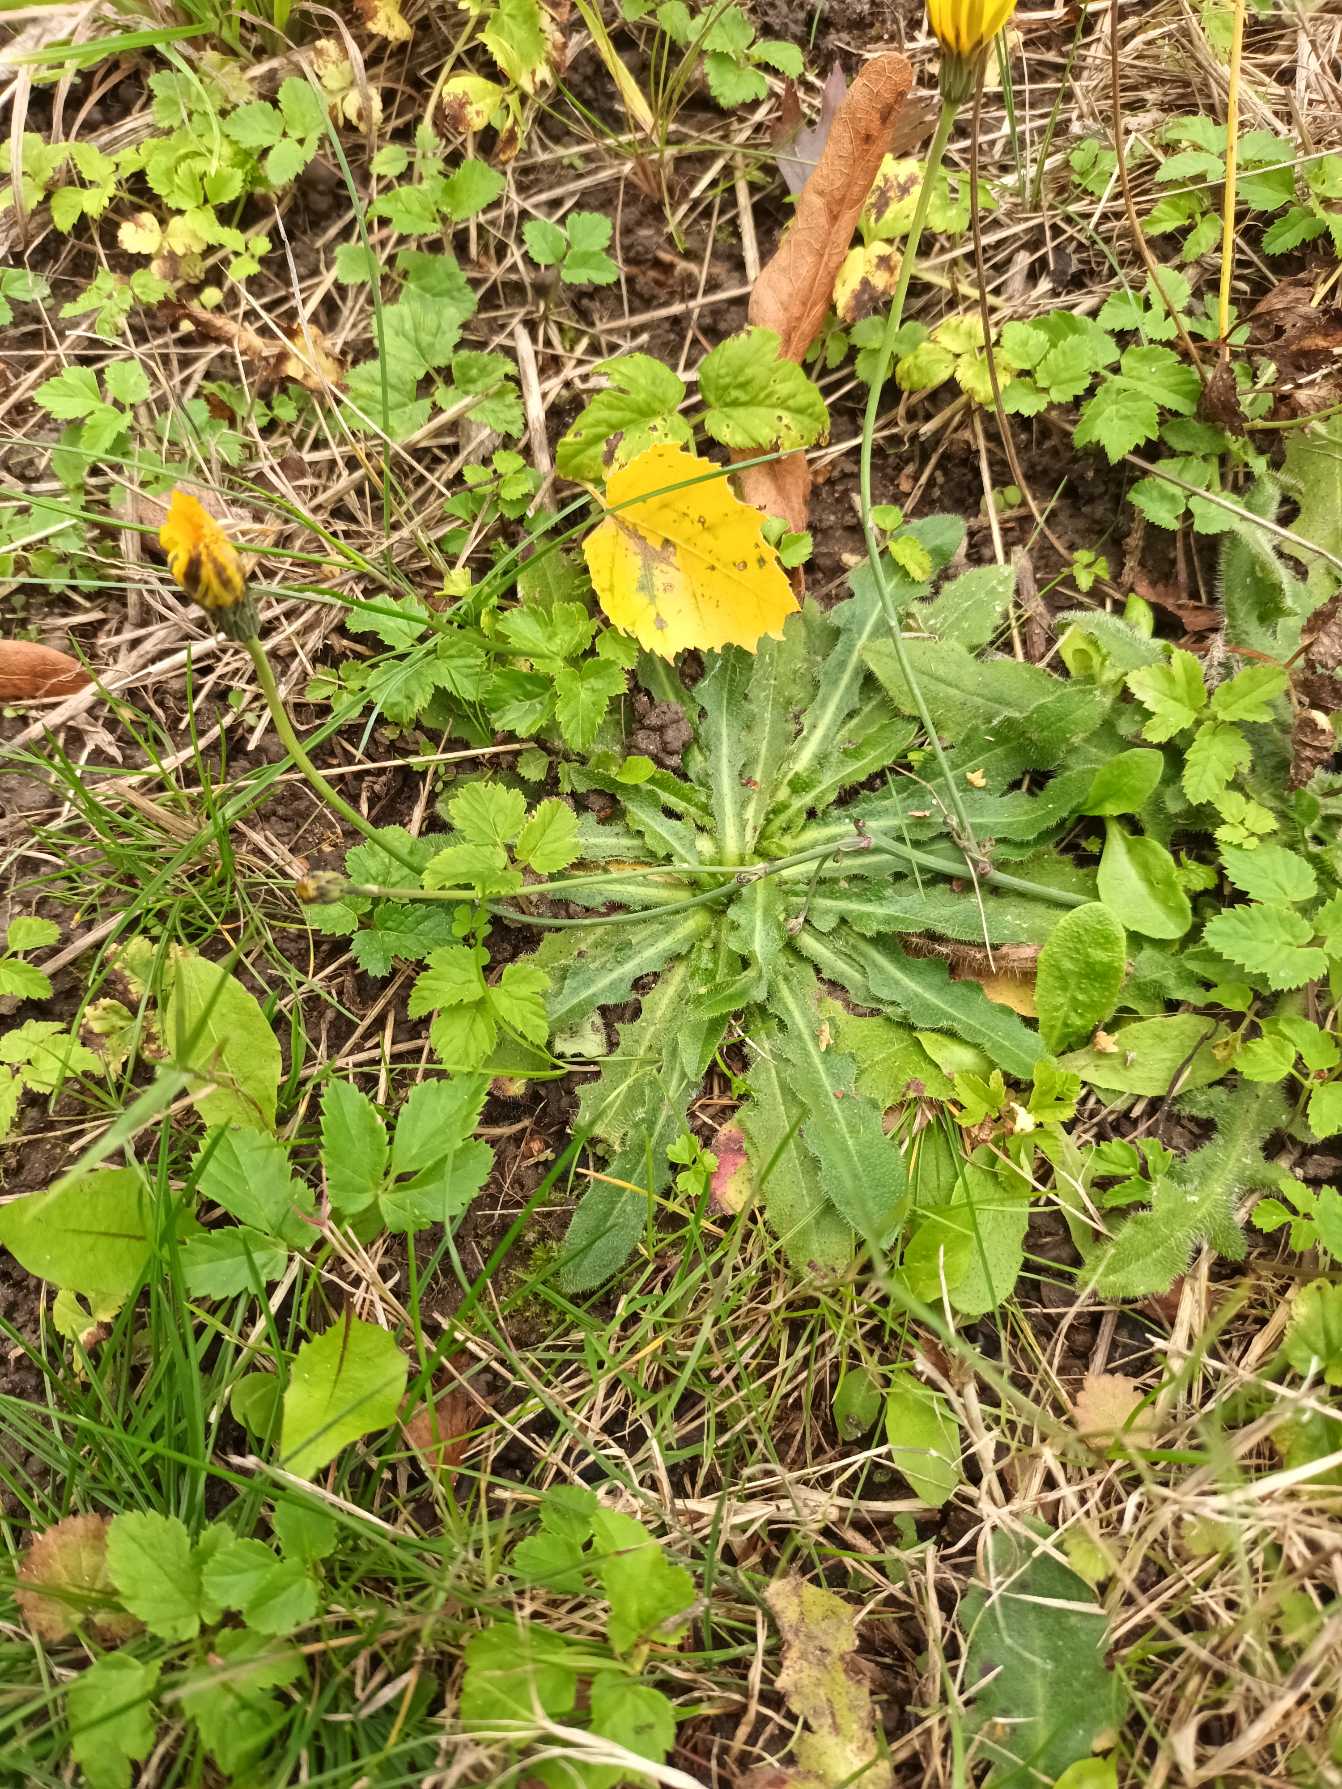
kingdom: Plantae
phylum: Tracheophyta
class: Magnoliopsida
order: Asterales
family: Asteraceae
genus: Hypochaeris
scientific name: Hypochaeris radicata
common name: Almindelig kongepen
